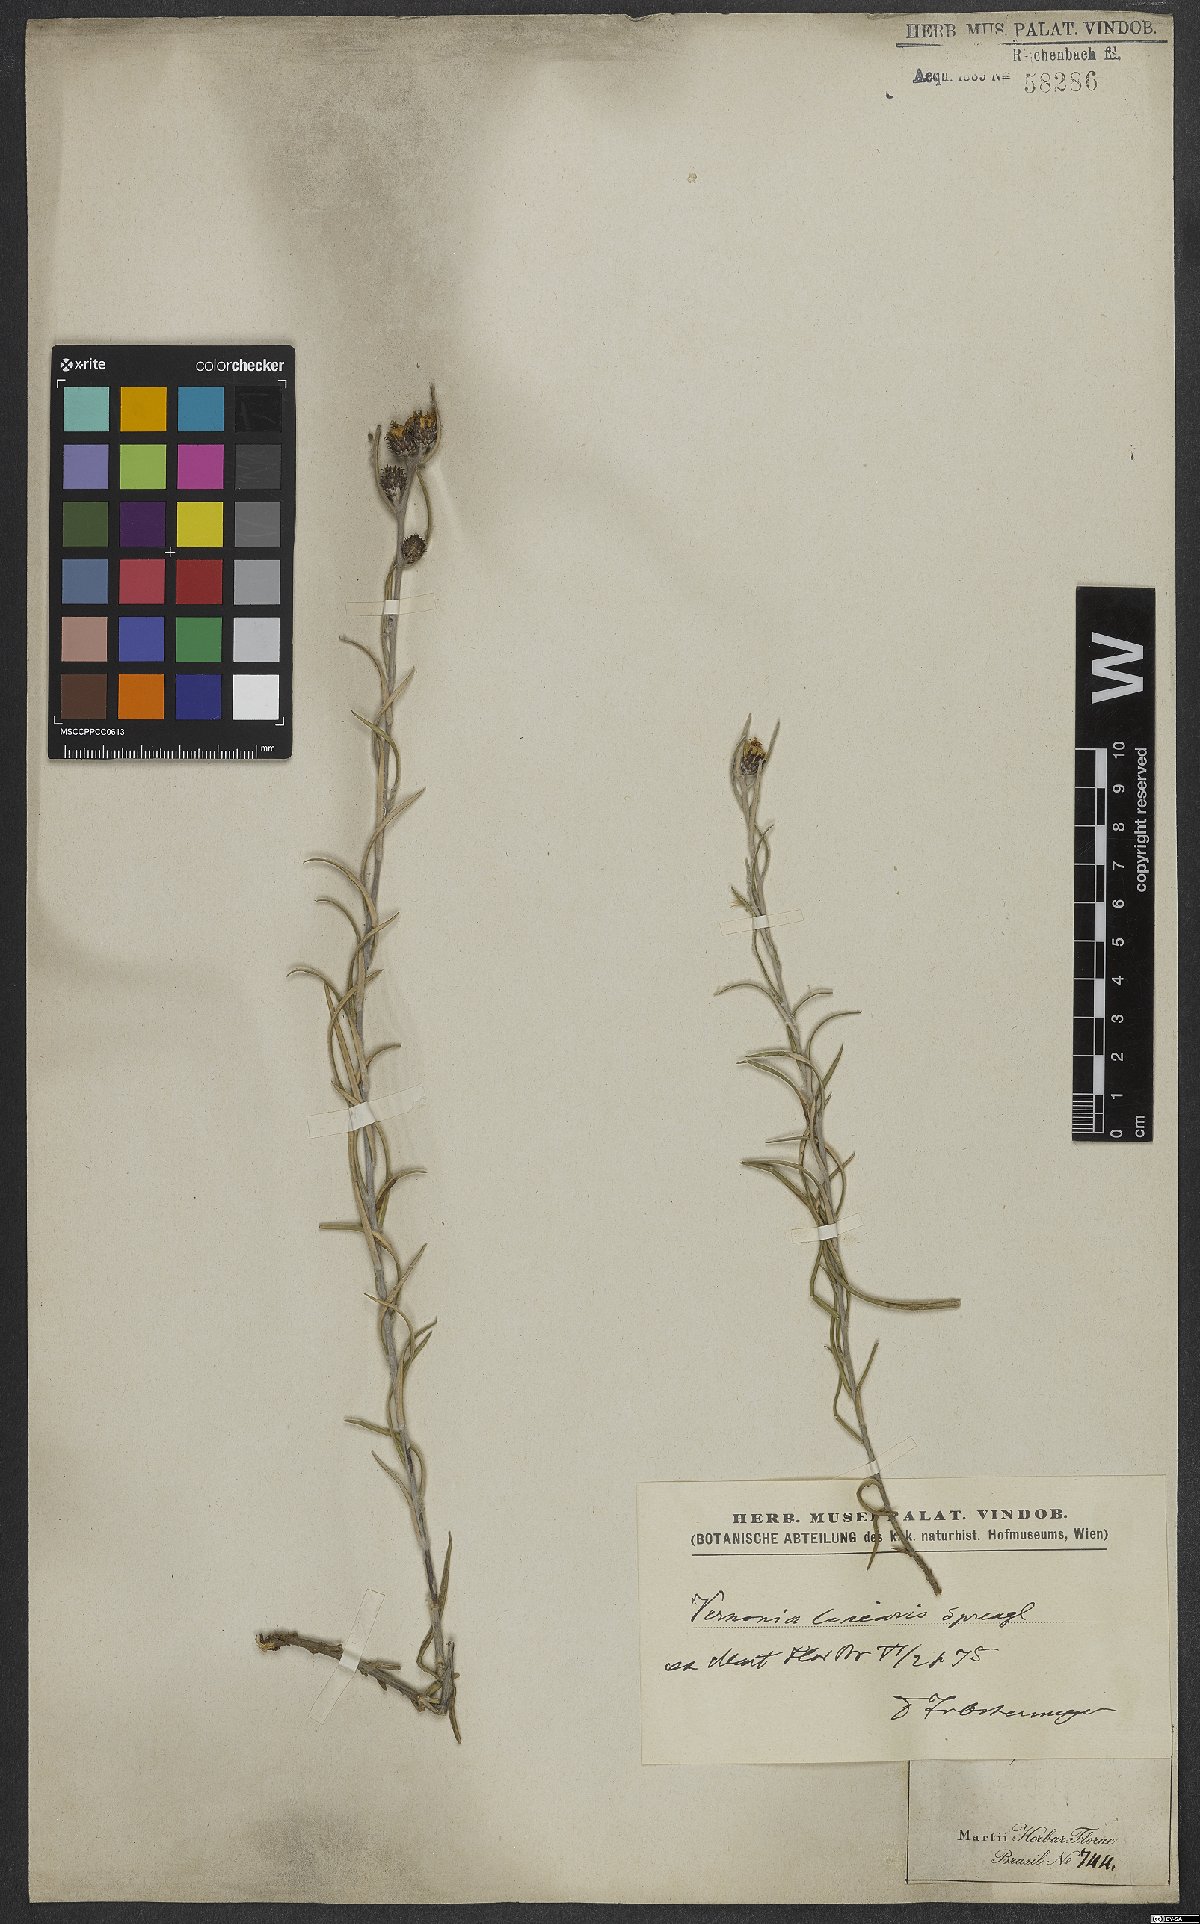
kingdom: Plantae
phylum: Tracheophyta
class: Magnoliopsida
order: Asterales
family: Asteraceae
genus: Lessingianthus
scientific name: Lessingianthus linearis
